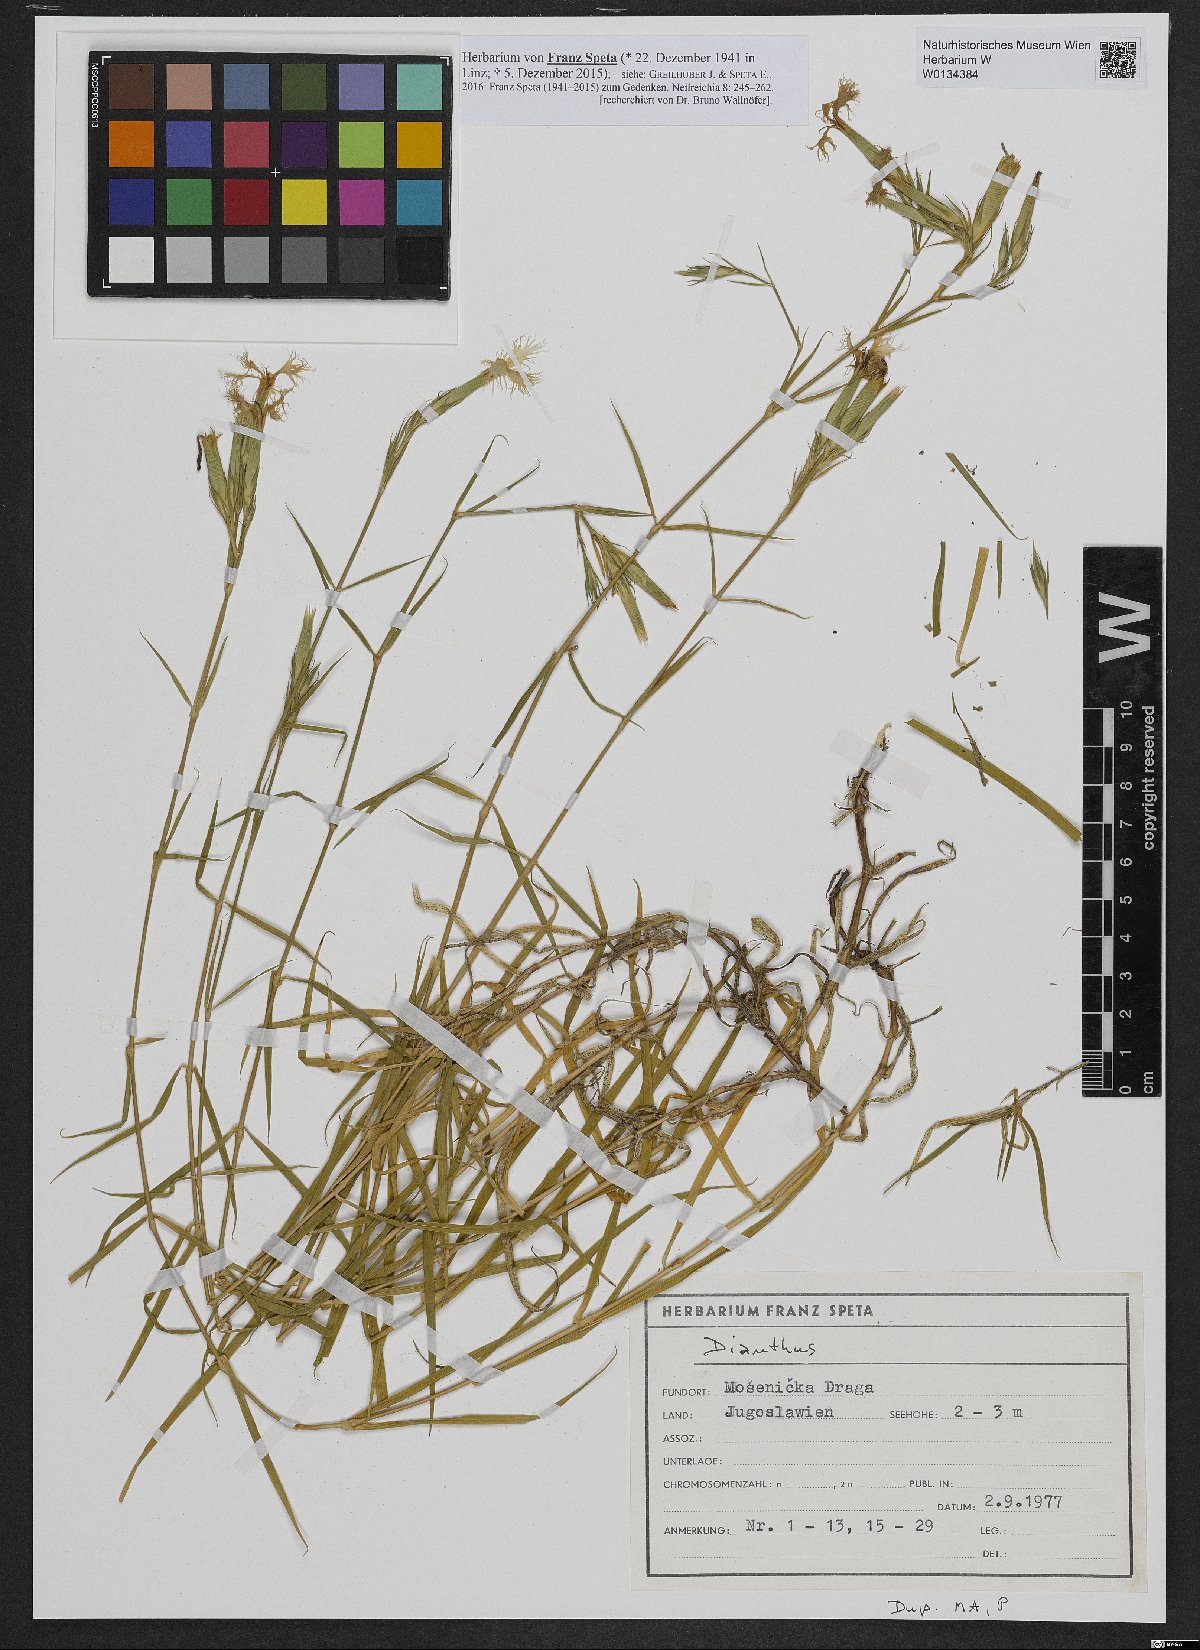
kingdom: Plantae
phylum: Tracheophyta
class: Magnoliopsida
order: Caryophyllales
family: Caryophyllaceae
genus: Dianthus
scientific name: Dianthus
